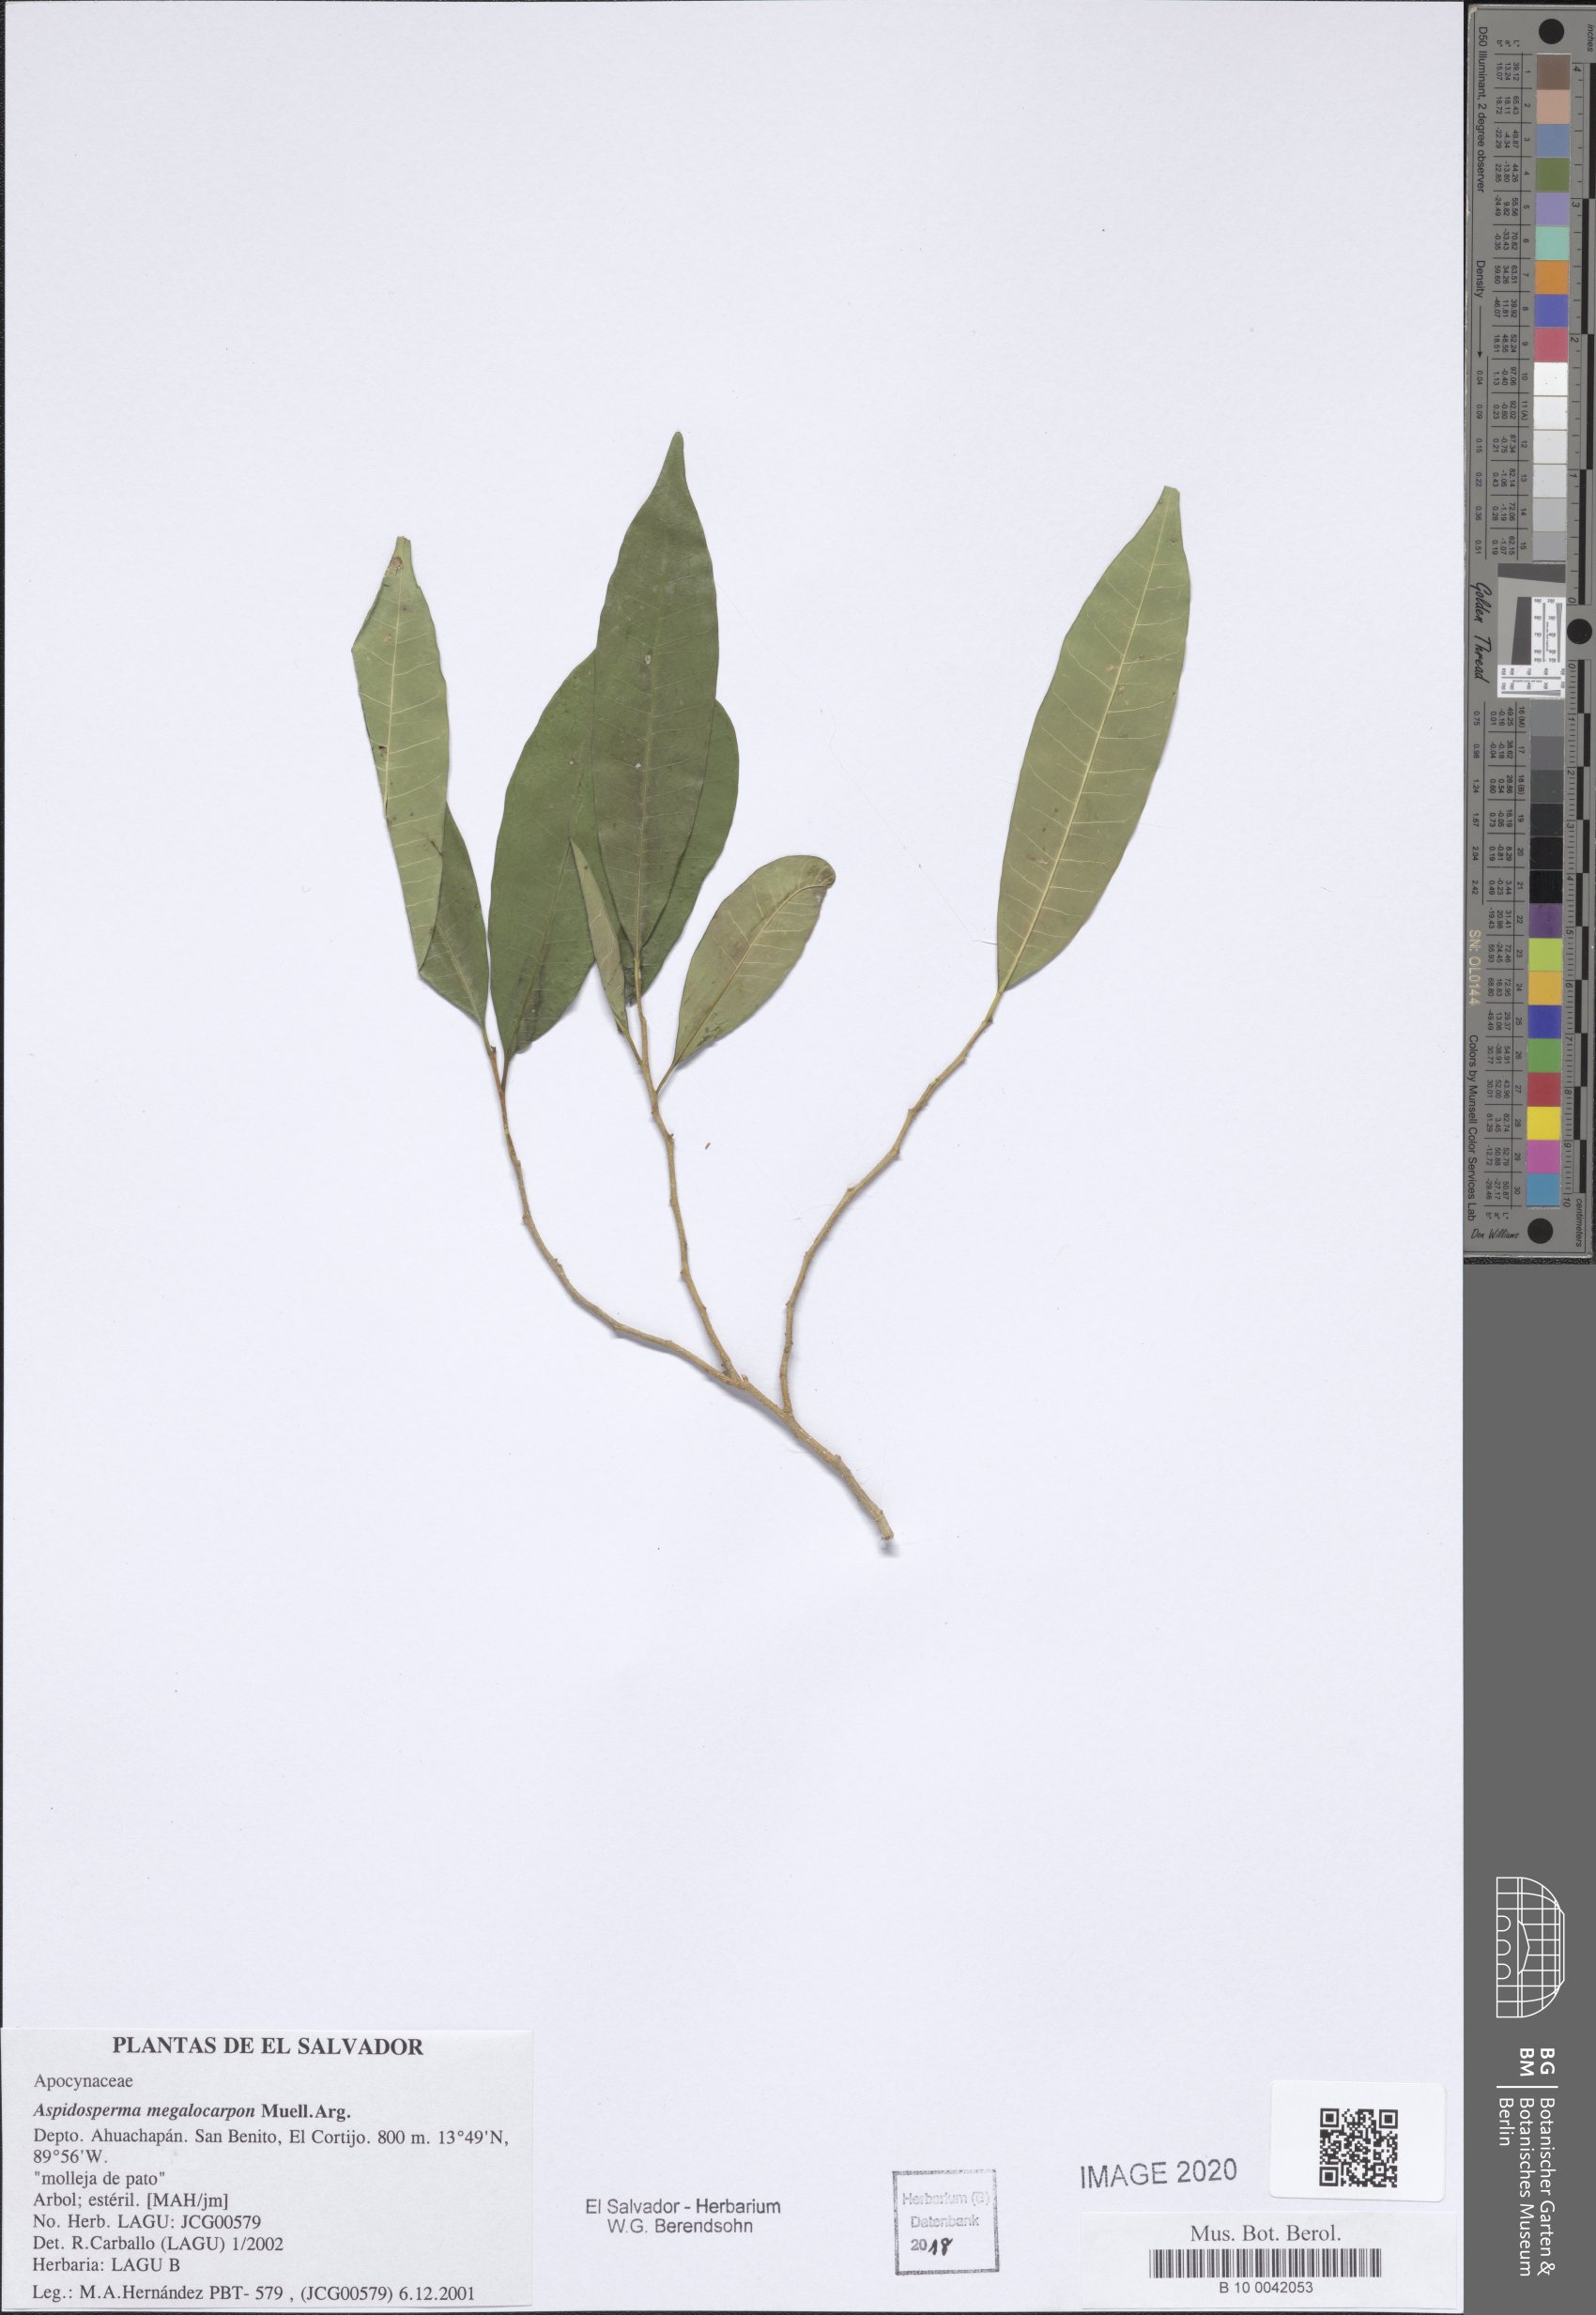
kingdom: Plantae
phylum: Tracheophyta
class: Magnoliopsida
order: Gentianales
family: Apocynaceae
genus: Aspidosperma
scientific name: Aspidosperma megalocarpon
